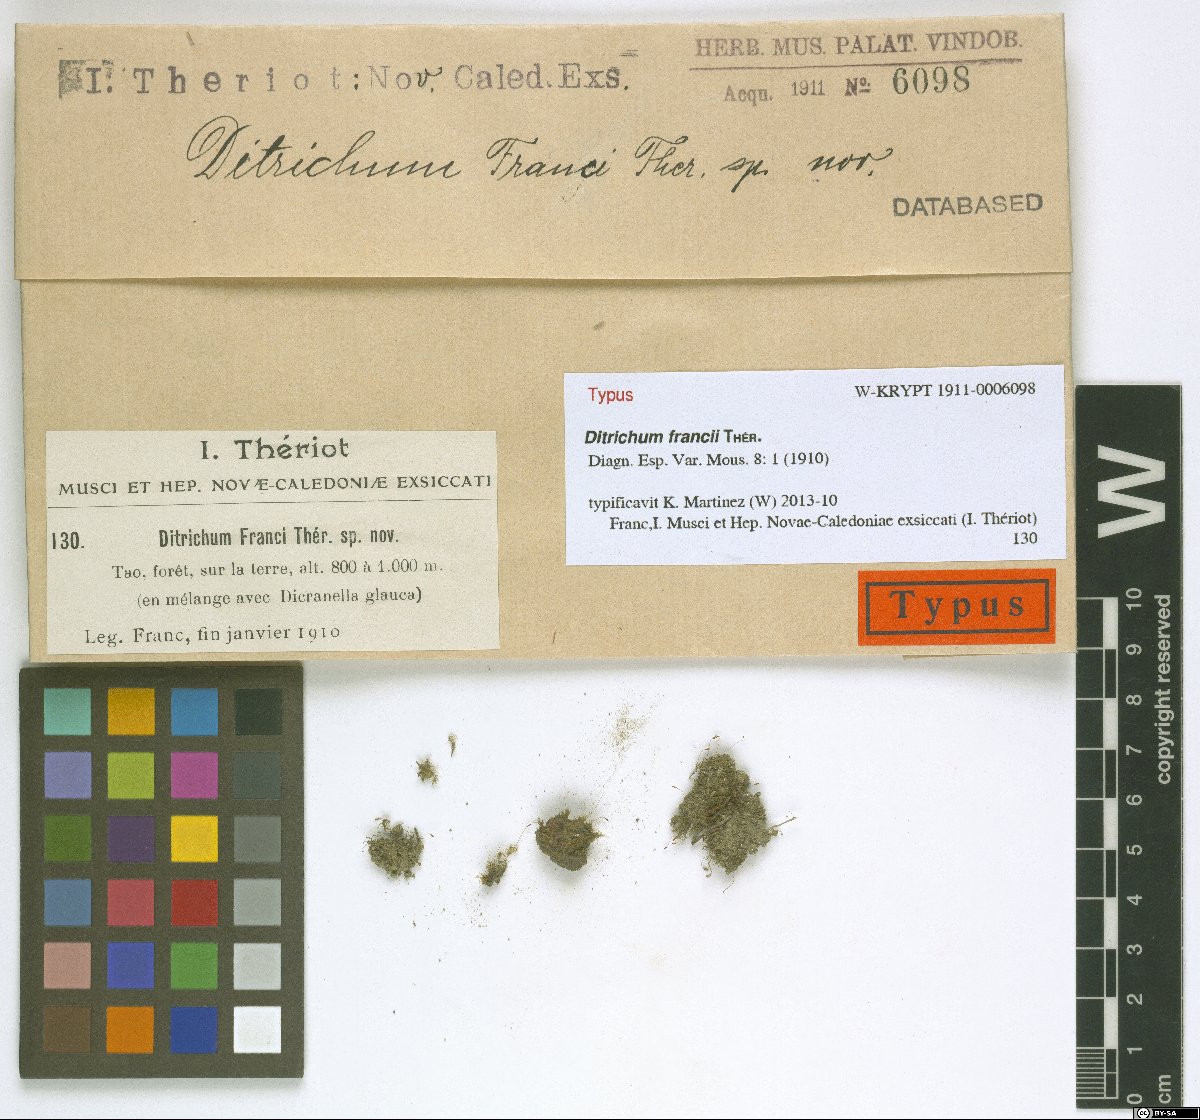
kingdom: Plantae
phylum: Bryophyta
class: Bryopsida
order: Dicranales
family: Ditrichaceae
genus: Ditrichum
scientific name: Ditrichum francii
